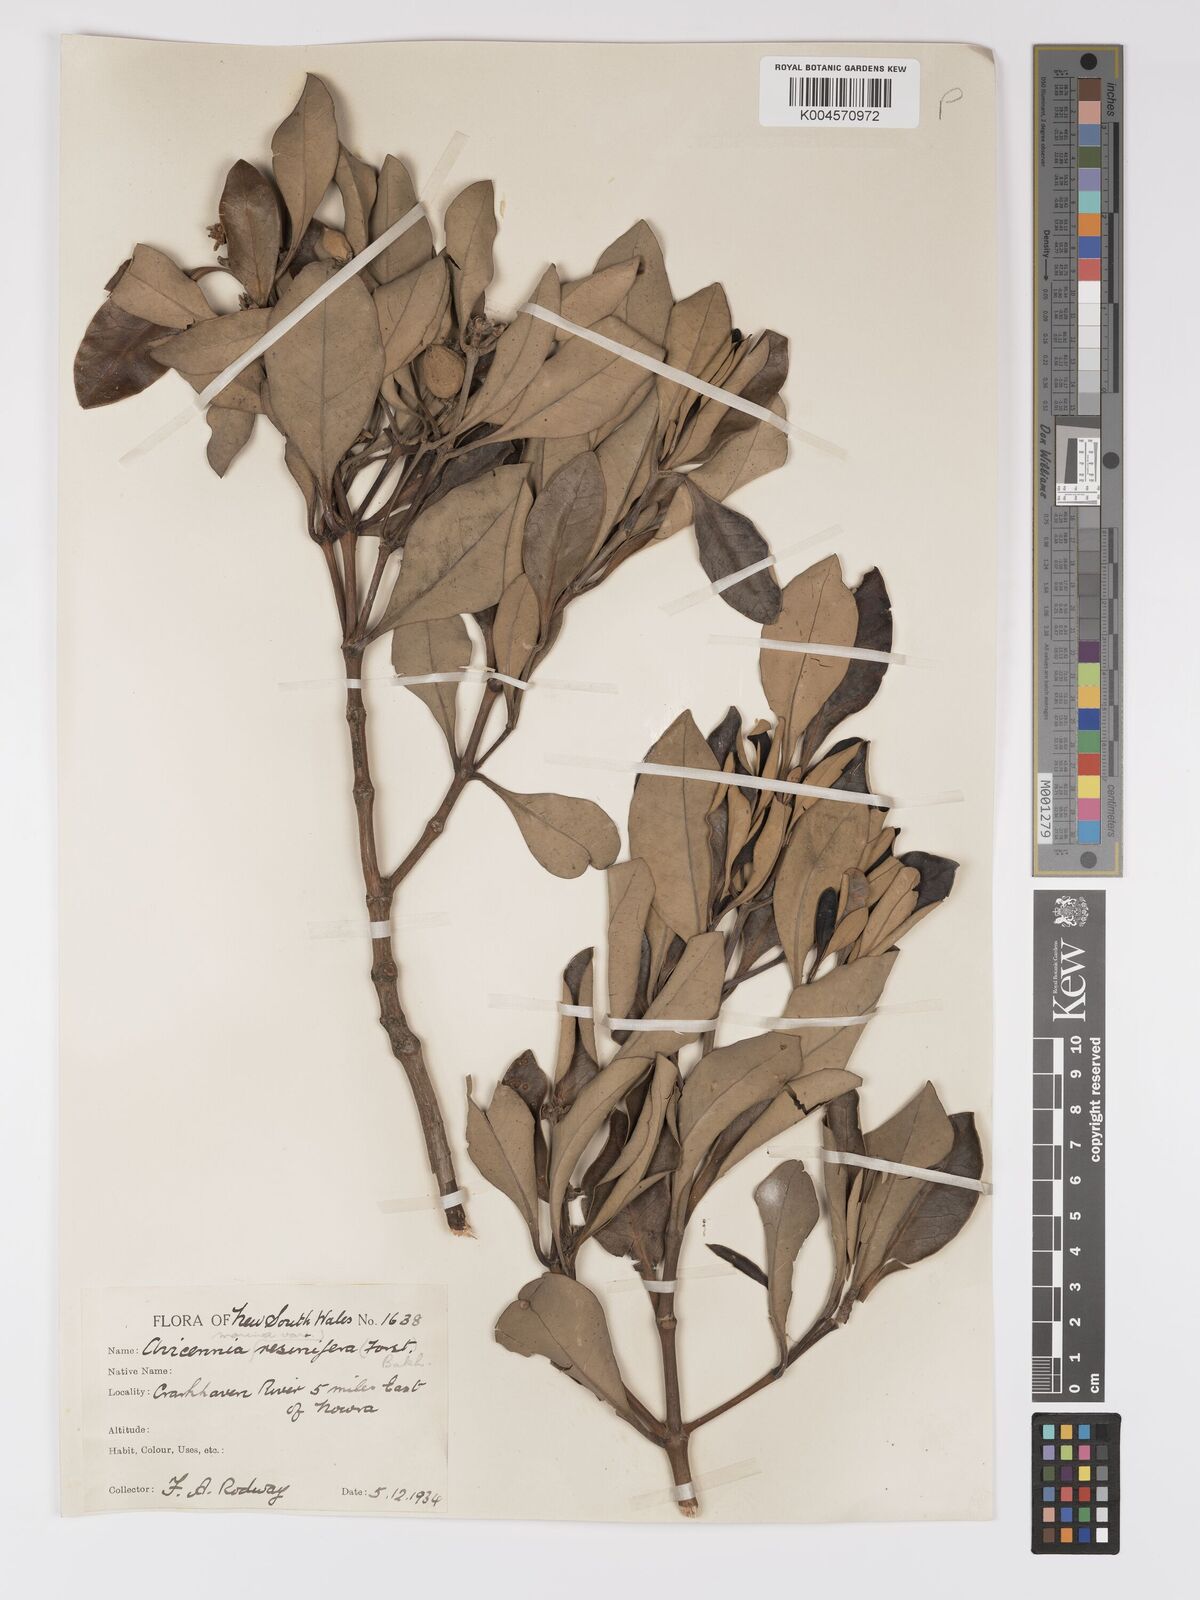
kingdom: Plantae
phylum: Tracheophyta
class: Magnoliopsida
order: Lamiales
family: Acanthaceae
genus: Avicennia
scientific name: Avicennia marina
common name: Gray mangrove
